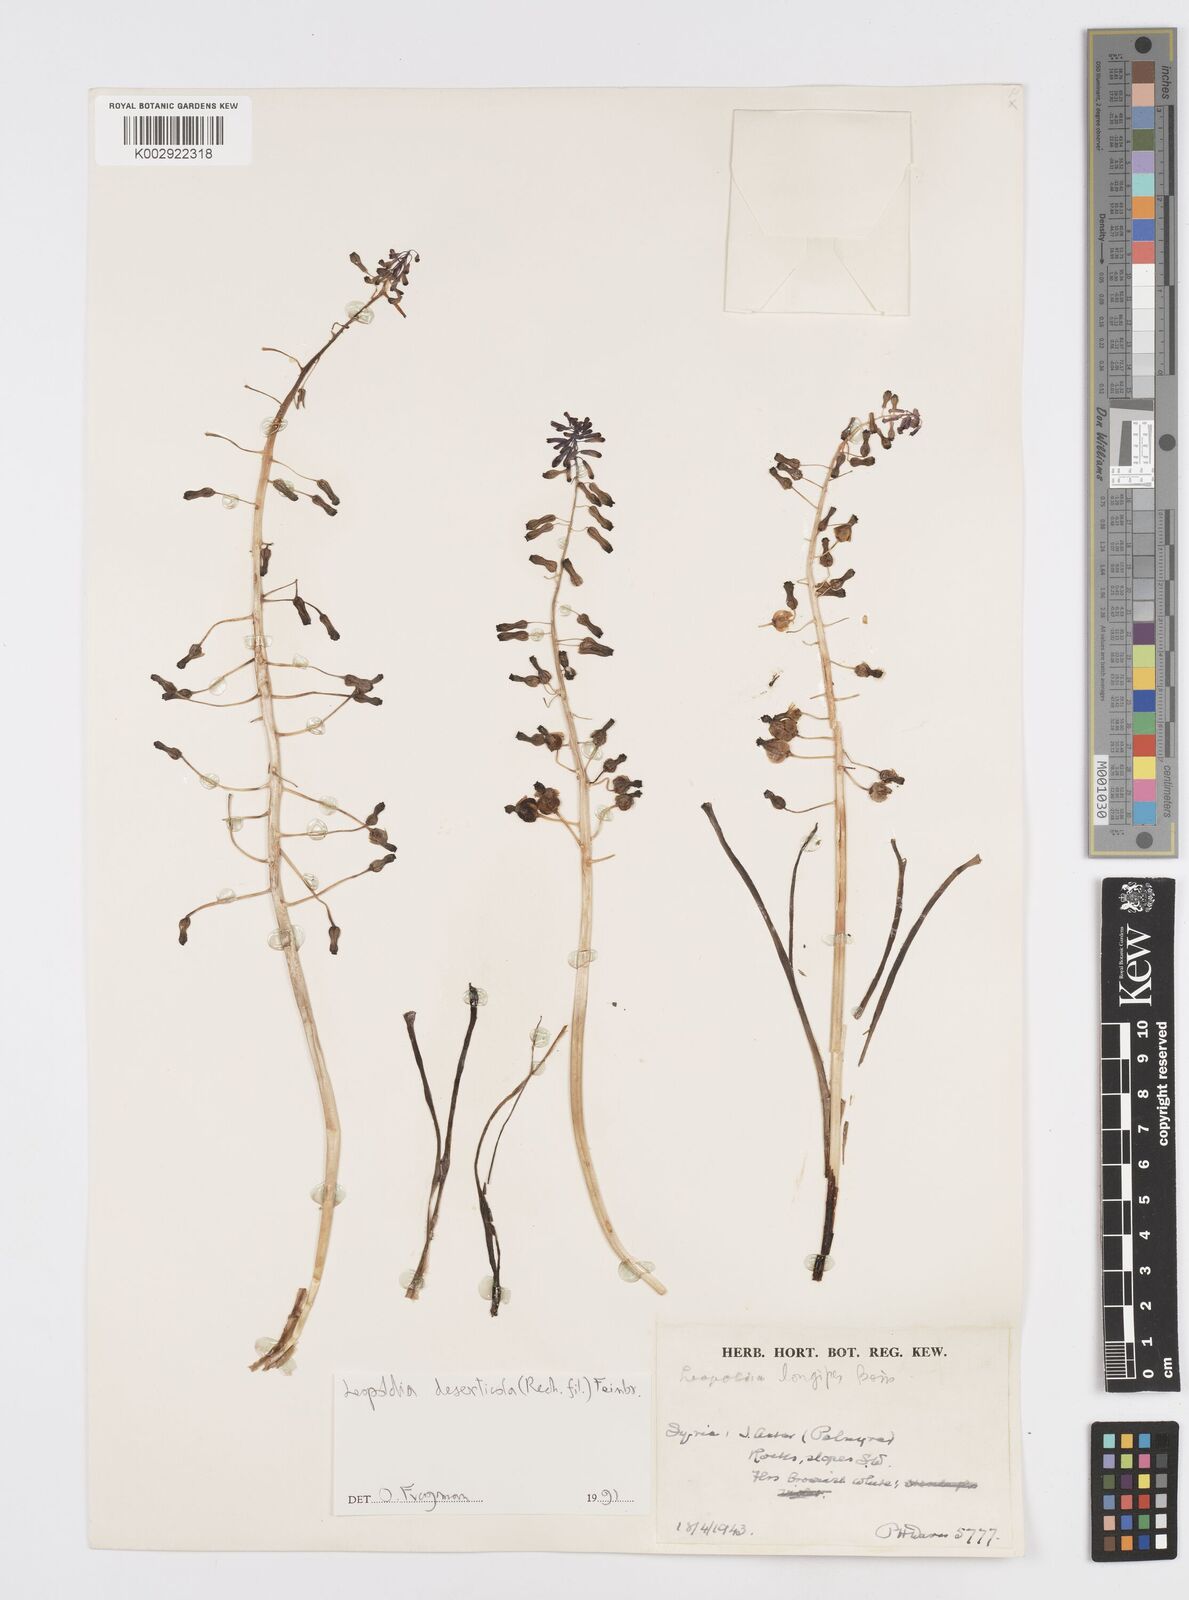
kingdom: Plantae
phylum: Tracheophyta
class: Liliopsida
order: Asparagales
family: Asparagaceae
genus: Muscari
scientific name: Muscari longipes
